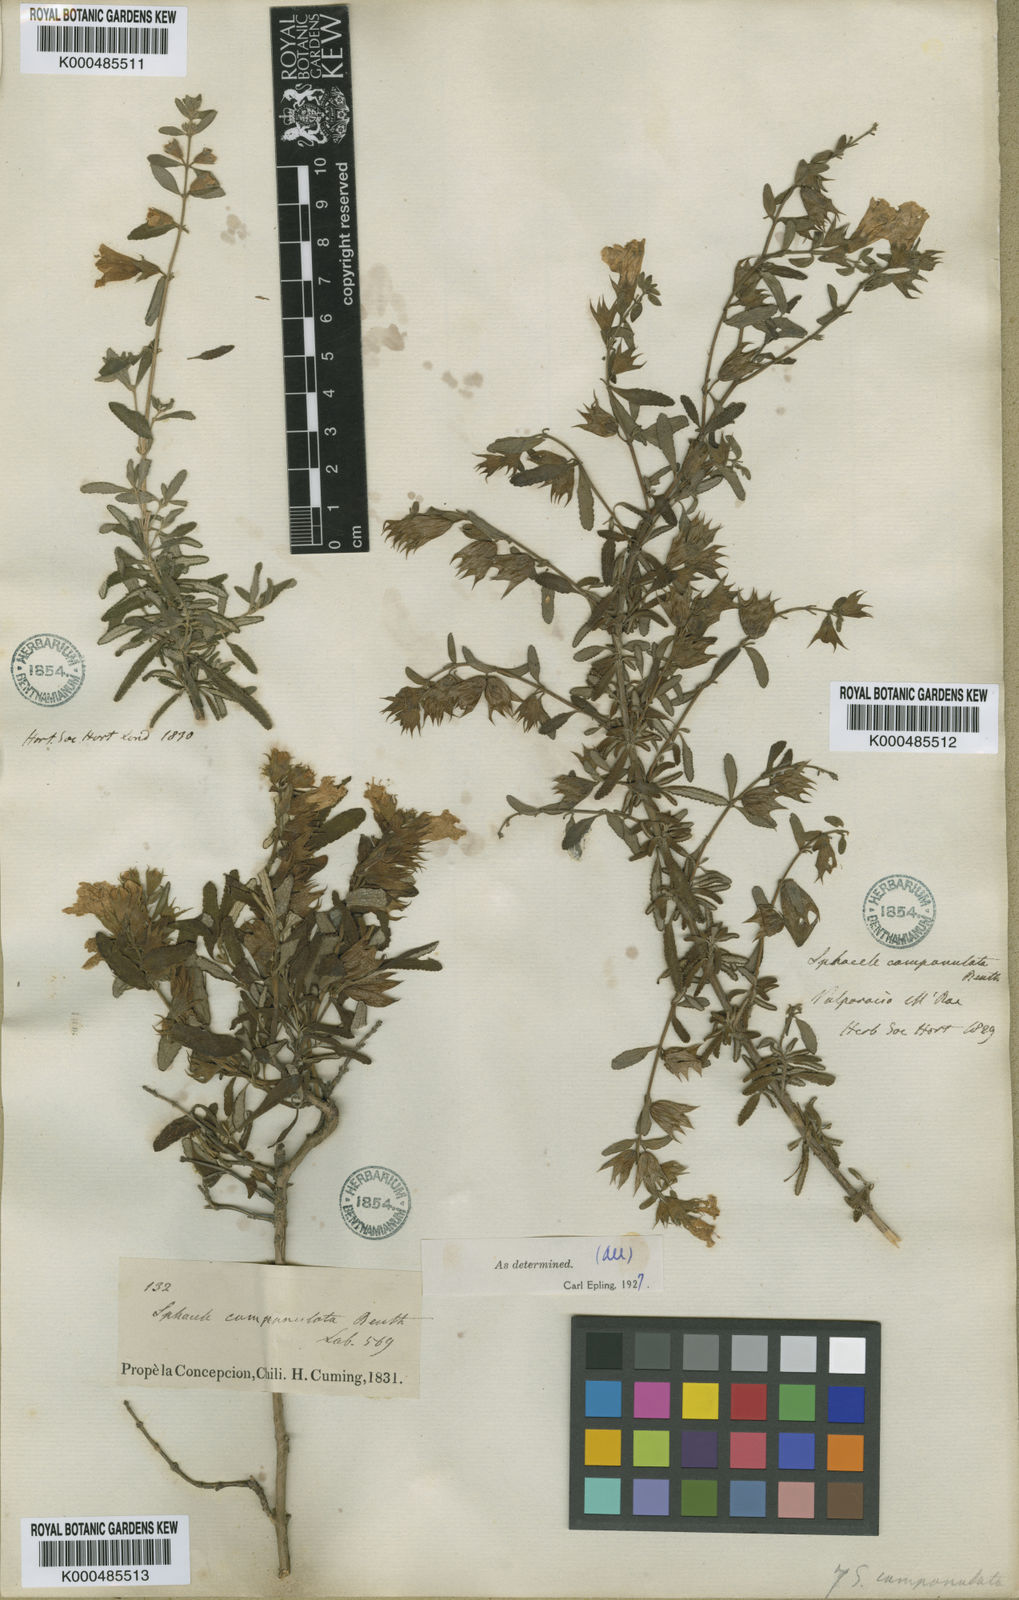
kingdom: Plantae
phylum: Tracheophyta
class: Magnoliopsida
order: Lamiales
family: Lamiaceae
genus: Lepechinia
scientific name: Lepechinia chilensis
